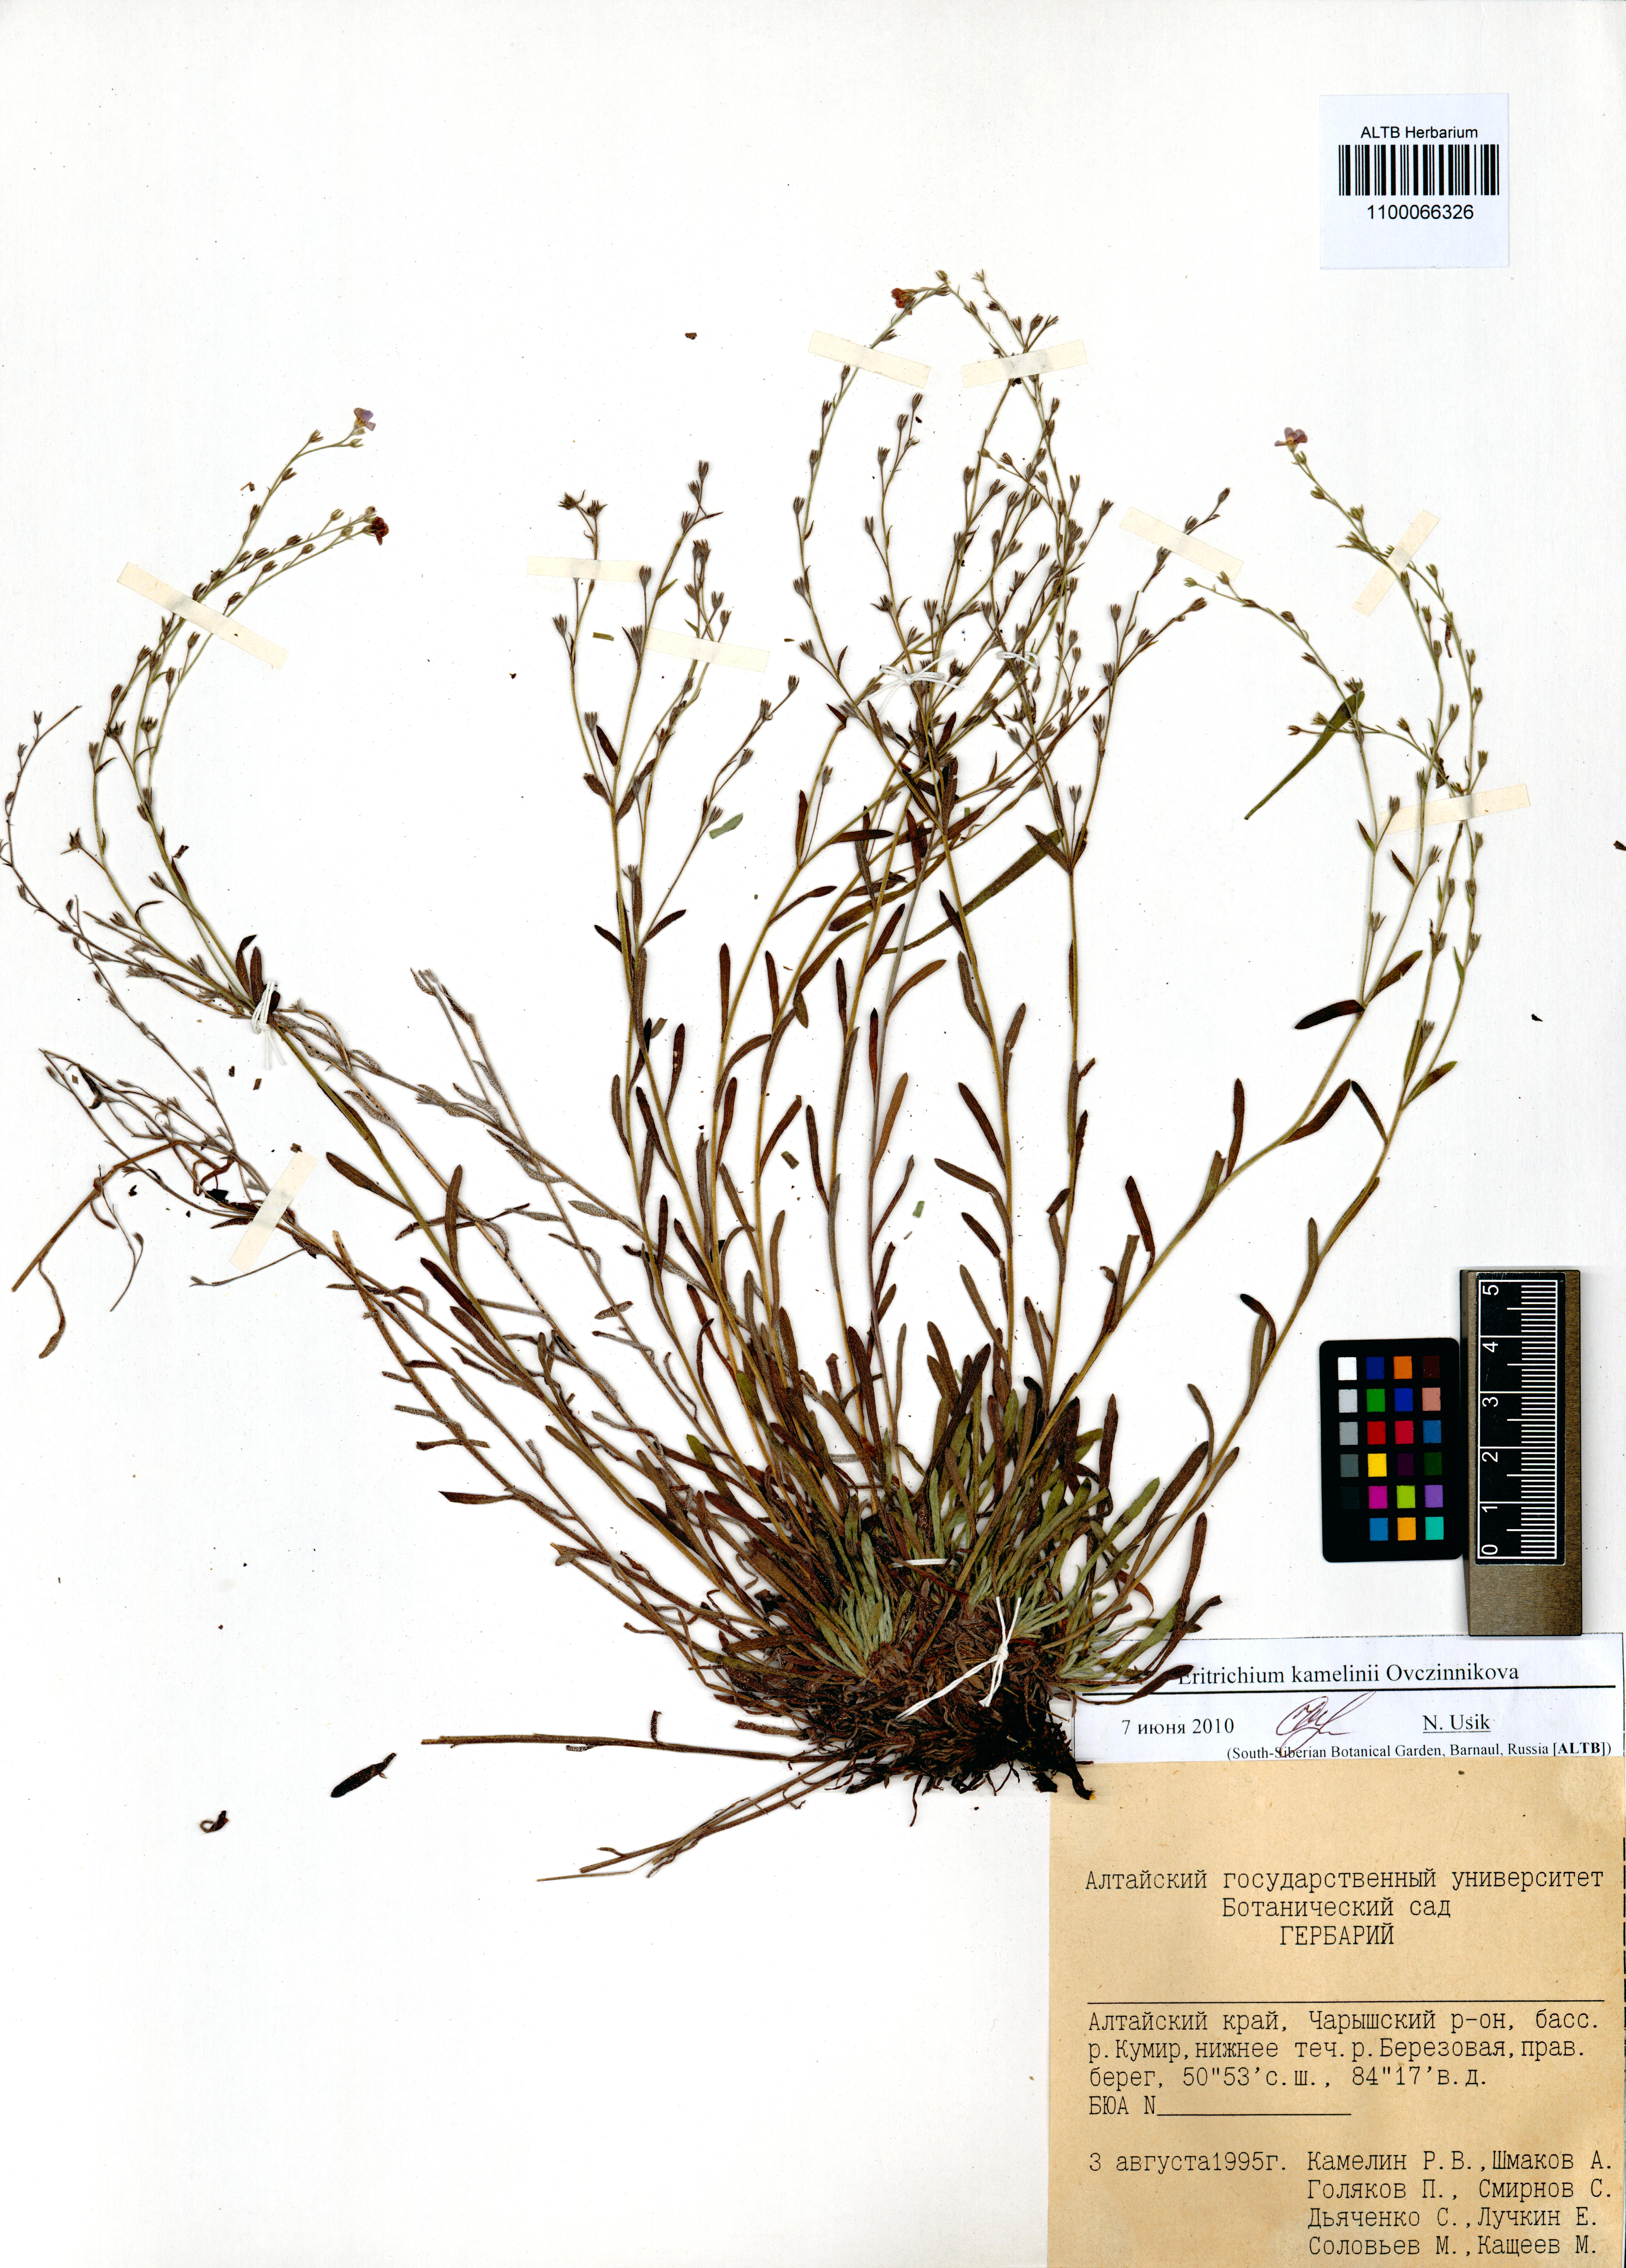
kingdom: Plantae
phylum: Tracheophyta
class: Magnoliopsida
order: Boraginales
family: Boraginaceae
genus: Eritrichium
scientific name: Eritrichium kamelinii
